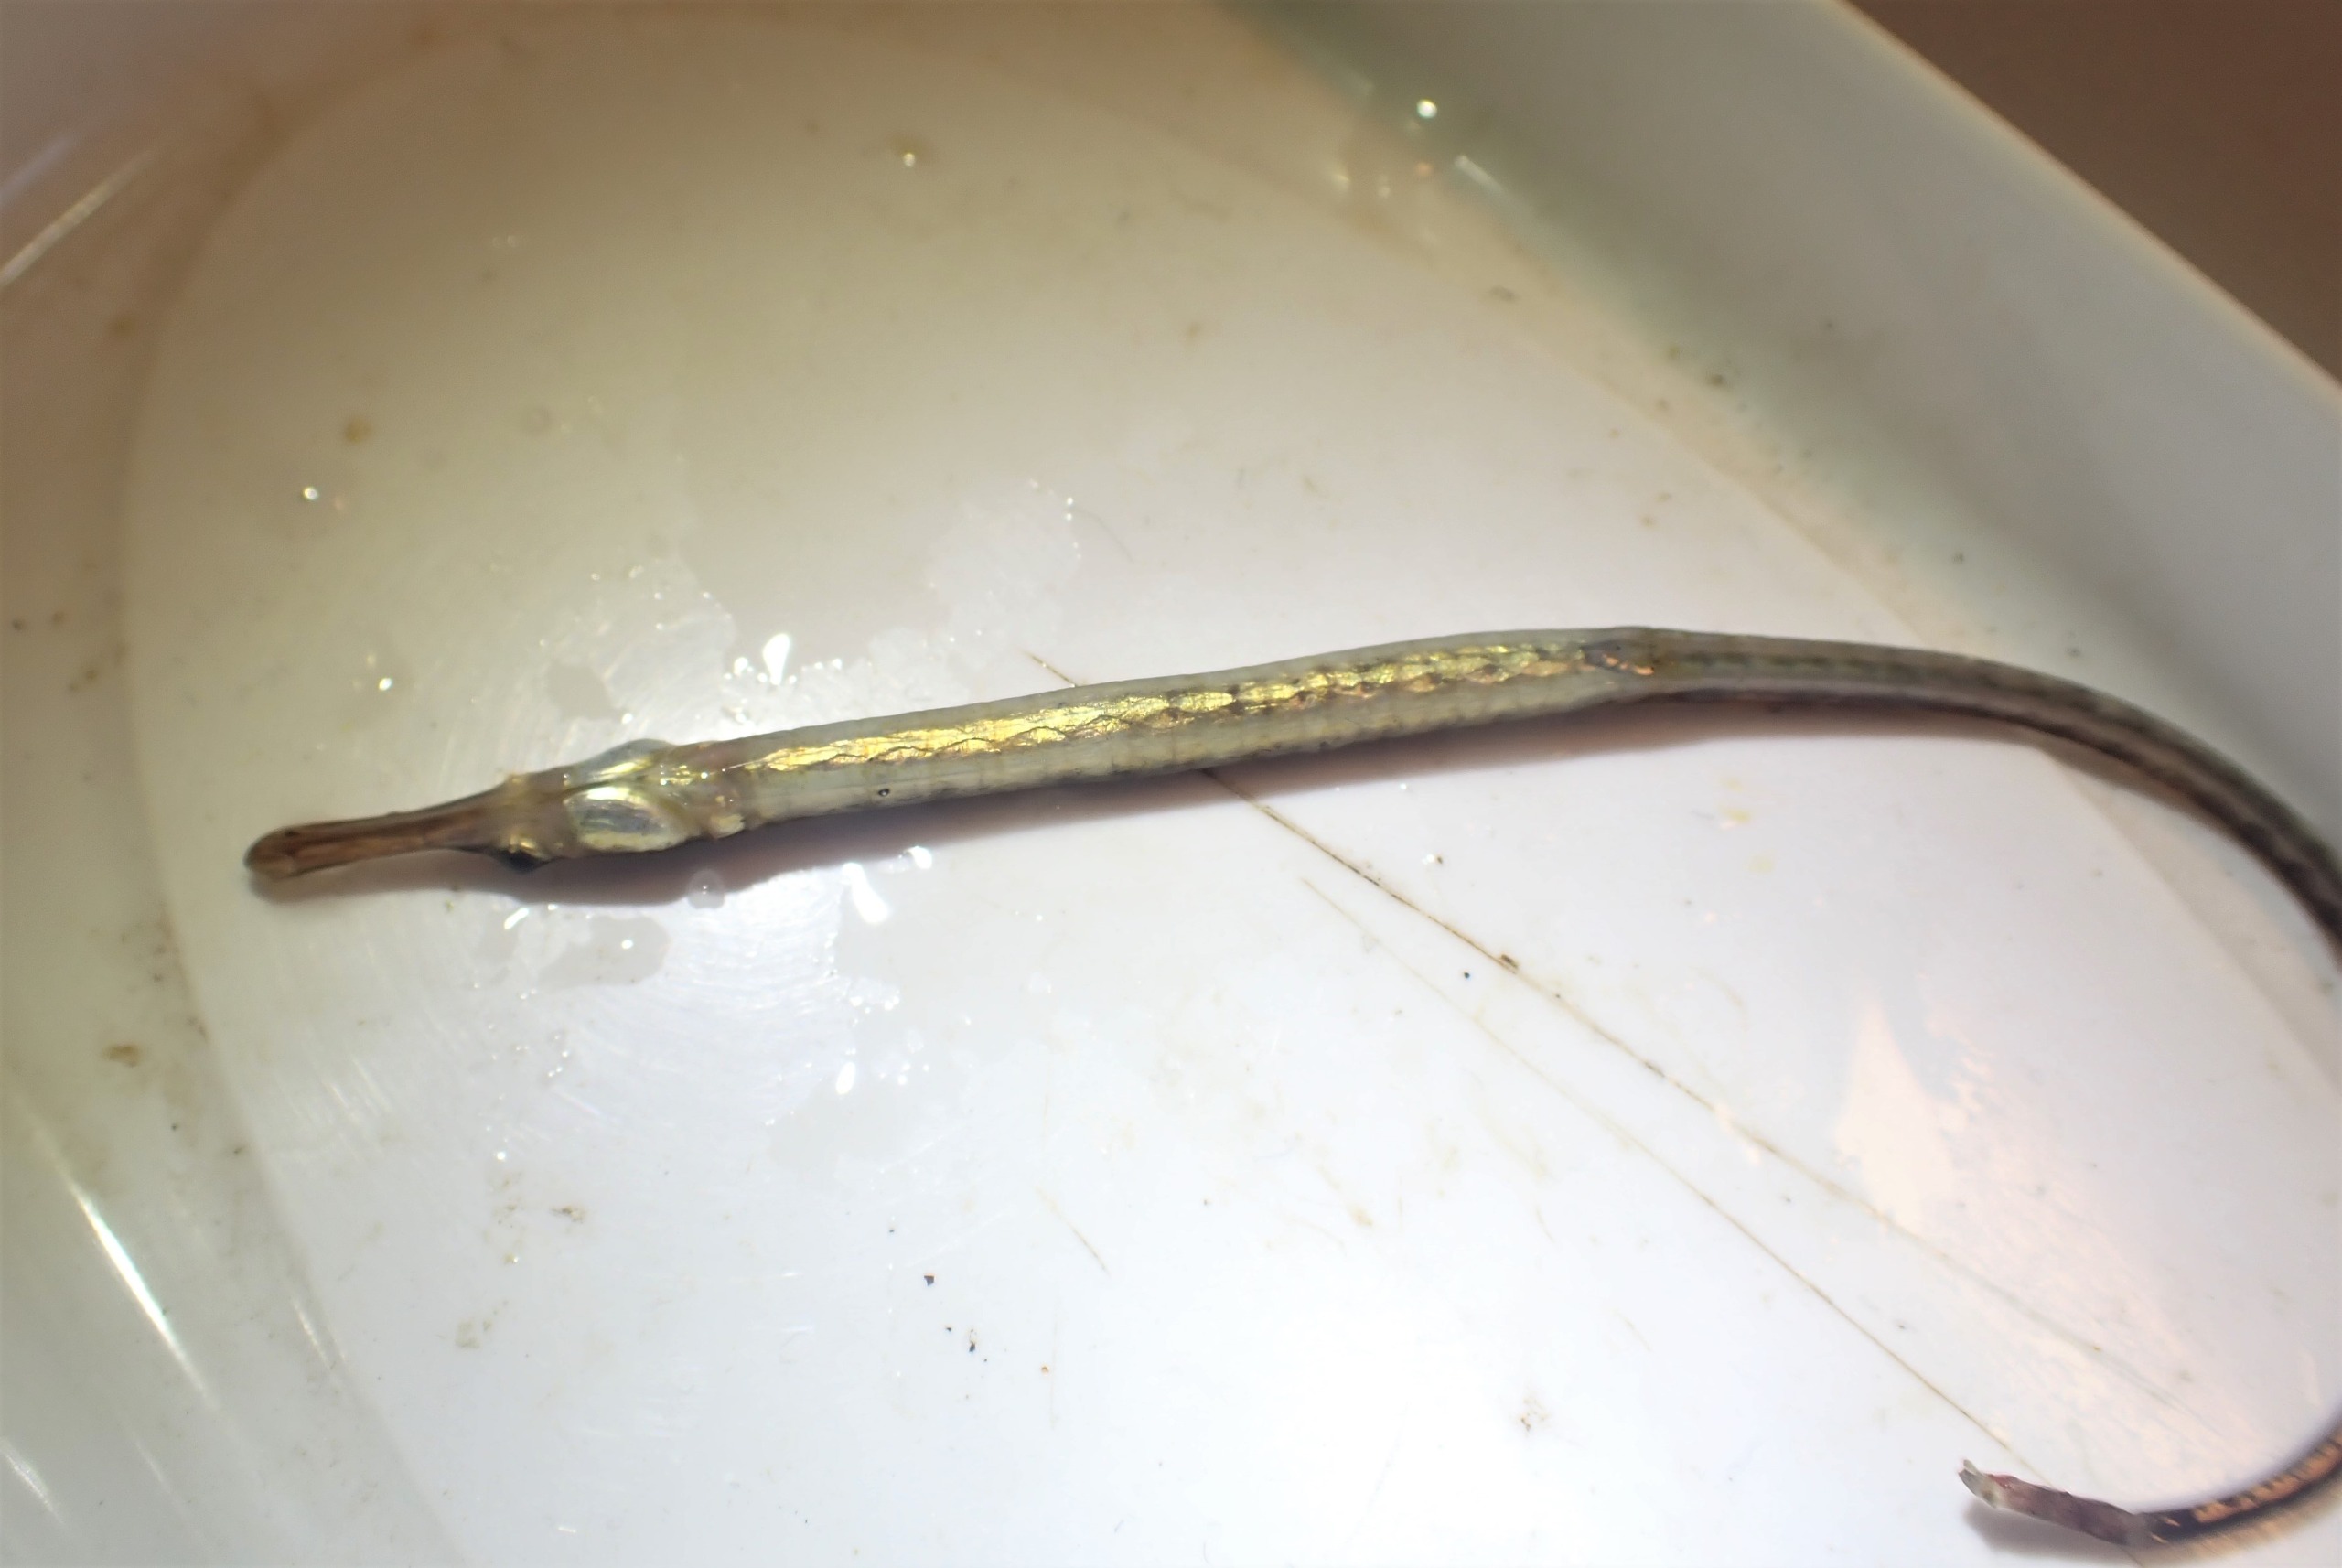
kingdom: Animalia
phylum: Chordata
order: Syngnathiformes
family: Syngnathidae
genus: Syngnathus
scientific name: Syngnathus rostellatus
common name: Lille tangnål
